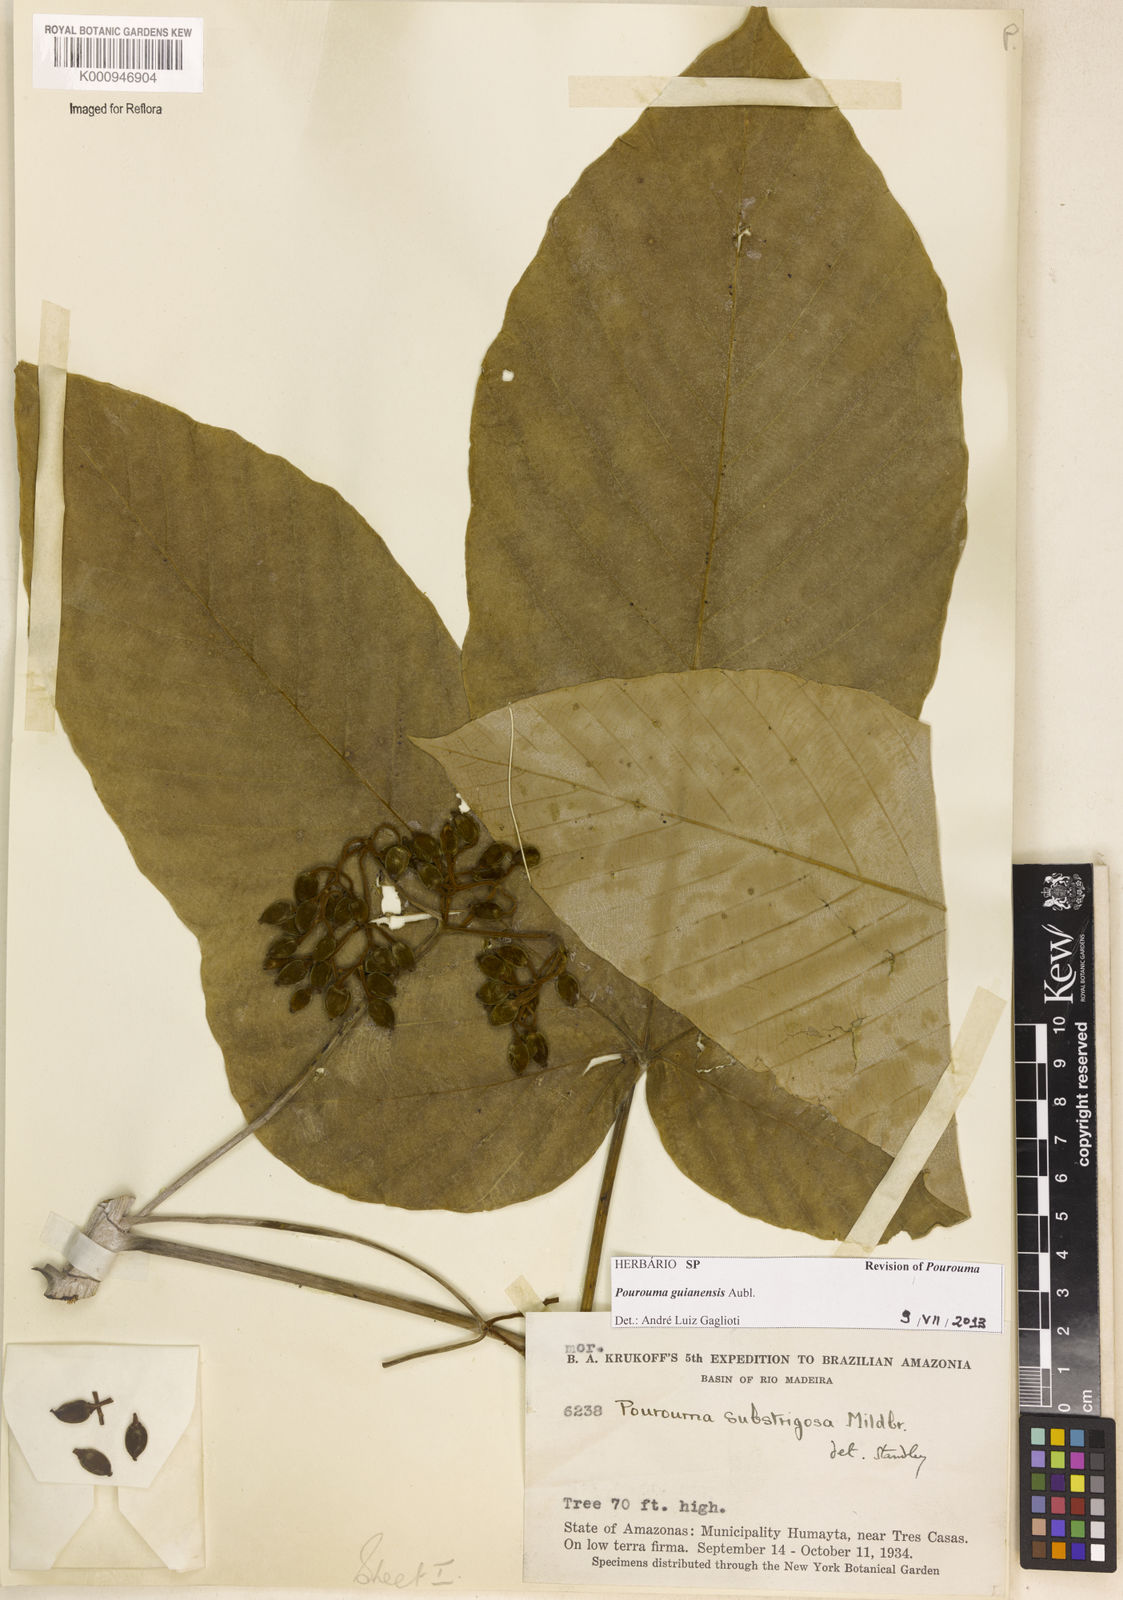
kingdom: Plantae
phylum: Tracheophyta
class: Magnoliopsida
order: Rosales
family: Urticaceae
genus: Pourouma
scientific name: Pourouma guianensis
